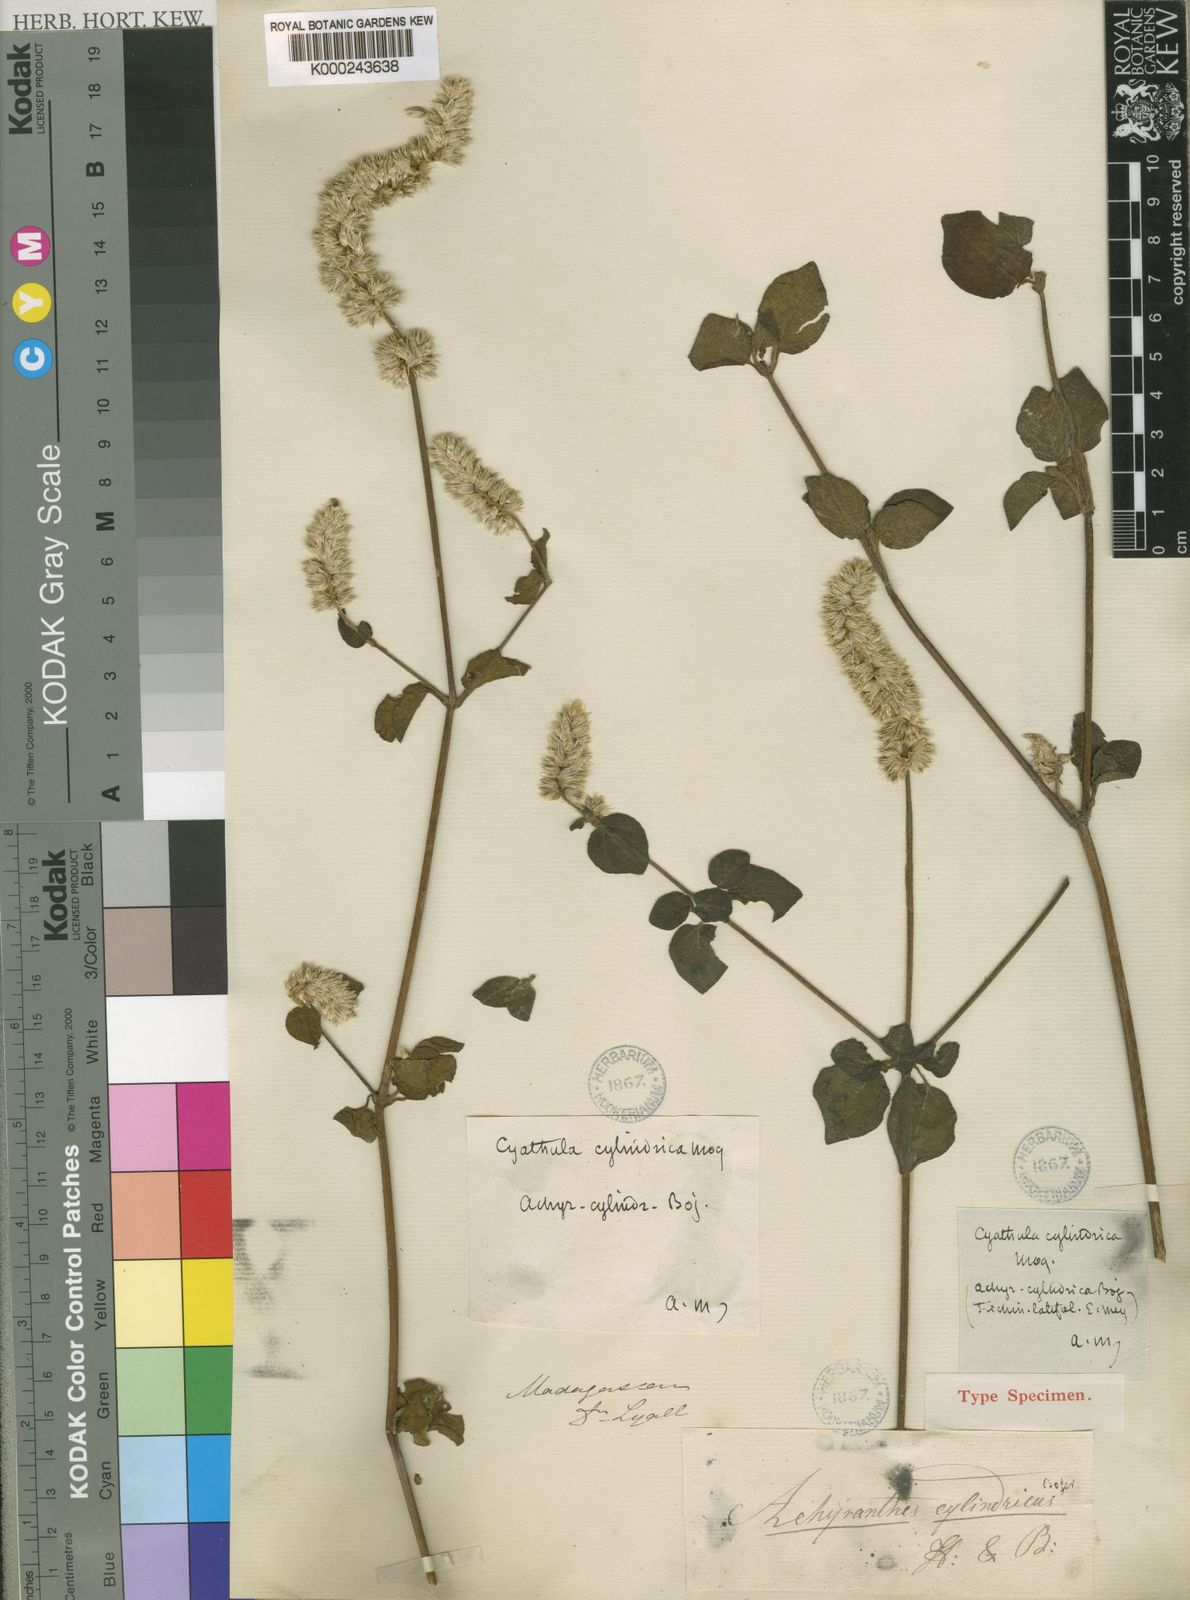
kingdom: Plantae
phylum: Tracheophyta
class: Magnoliopsida
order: Caryophyllales
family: Amaranthaceae
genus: Cyathula
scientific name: Cyathula cylindrica
